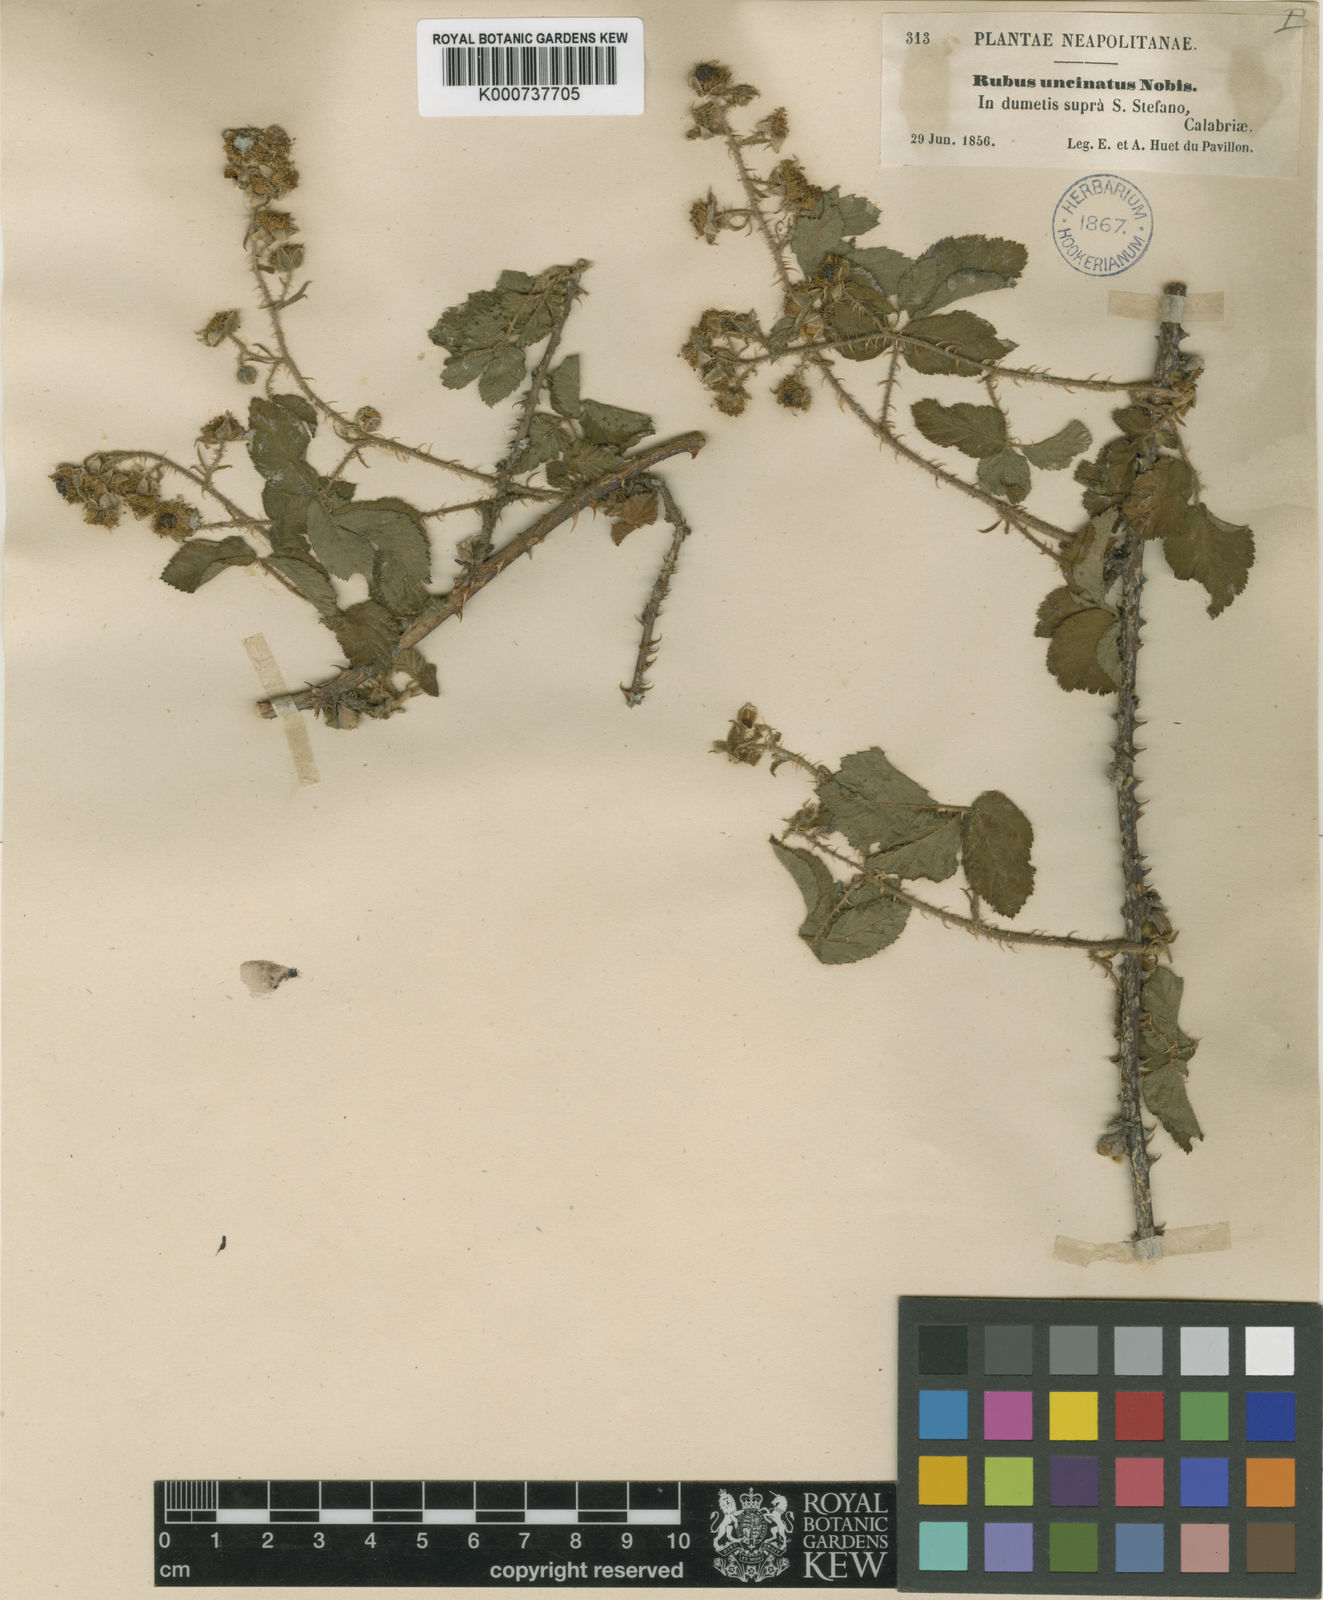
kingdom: Plantae
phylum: Tracheophyta
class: Magnoliopsida
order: Rosales
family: Rosaceae
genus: Rubus
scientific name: Rubus
